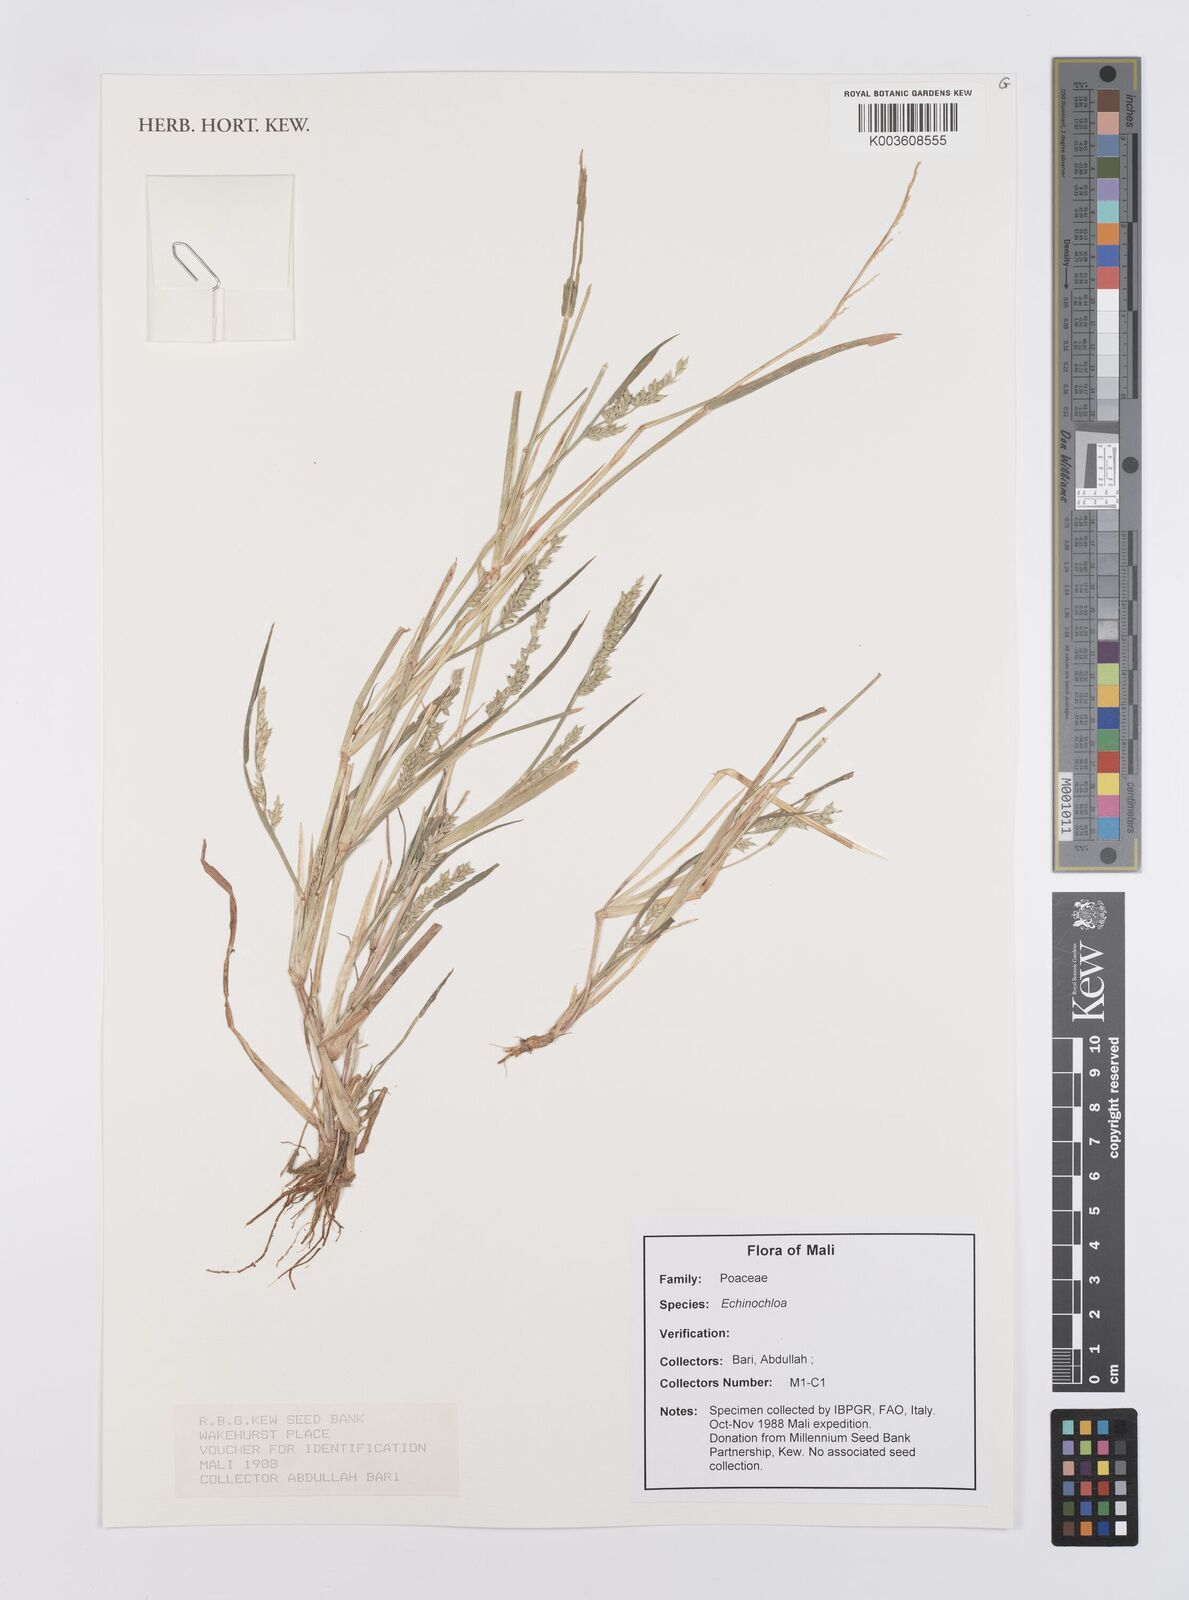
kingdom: Plantae
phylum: Tracheophyta
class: Liliopsida
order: Poales
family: Poaceae
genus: Echinochloa
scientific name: Echinochloa
